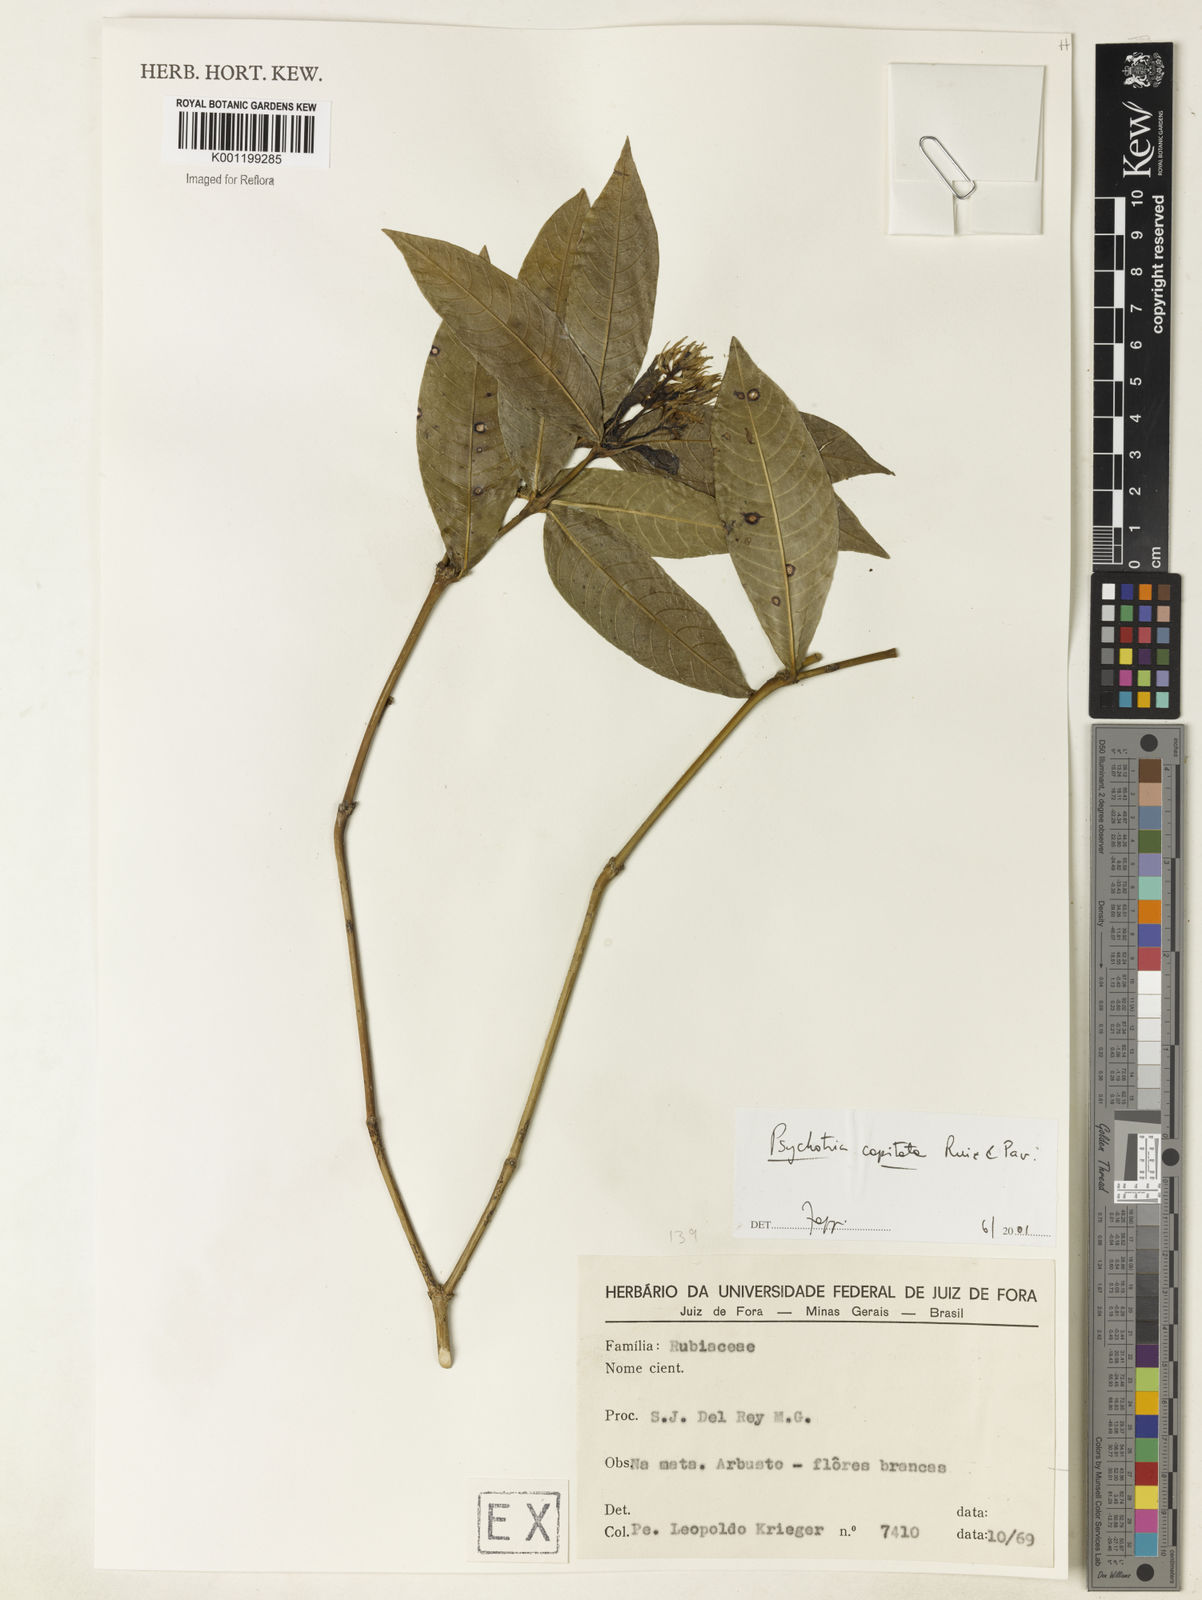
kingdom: Plantae
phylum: Tracheophyta
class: Magnoliopsida
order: Gentianales
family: Rubiaceae
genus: Palicourea
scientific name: Palicourea violacea
